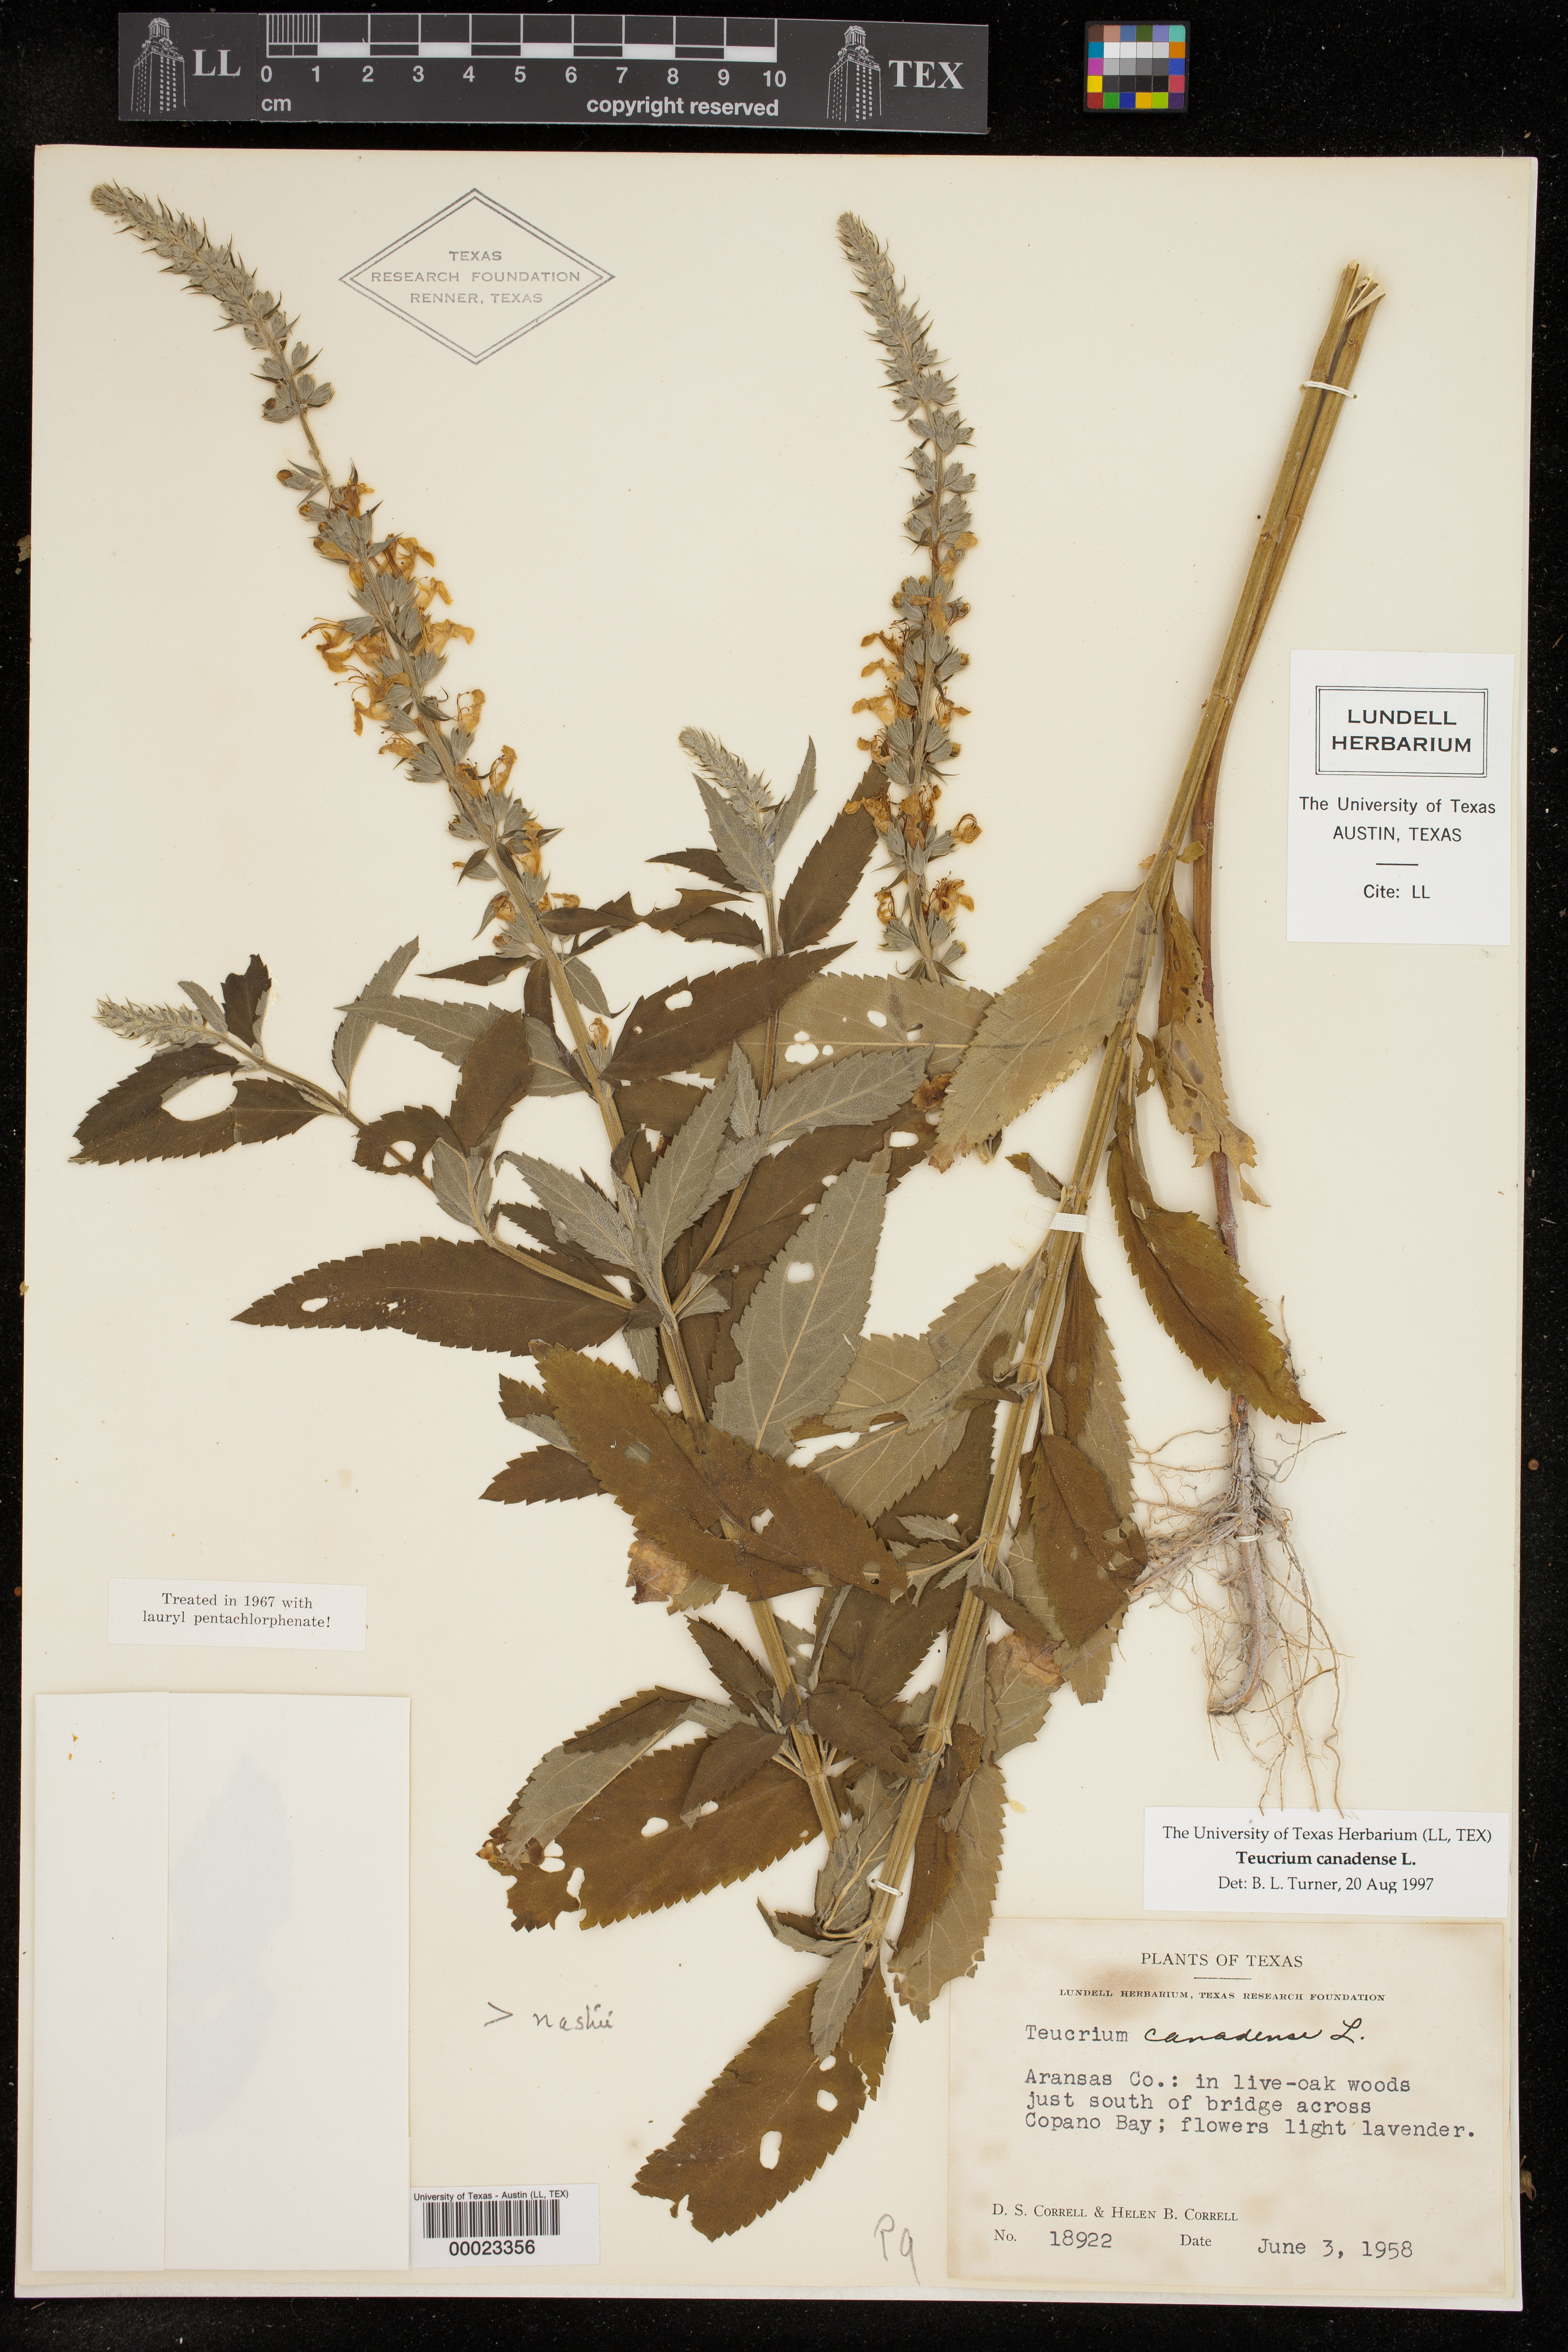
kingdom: Plantae
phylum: Tracheophyta
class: Magnoliopsida
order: Lamiales
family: Lamiaceae
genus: Teucrium
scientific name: Teucrium canadense
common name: American germander
